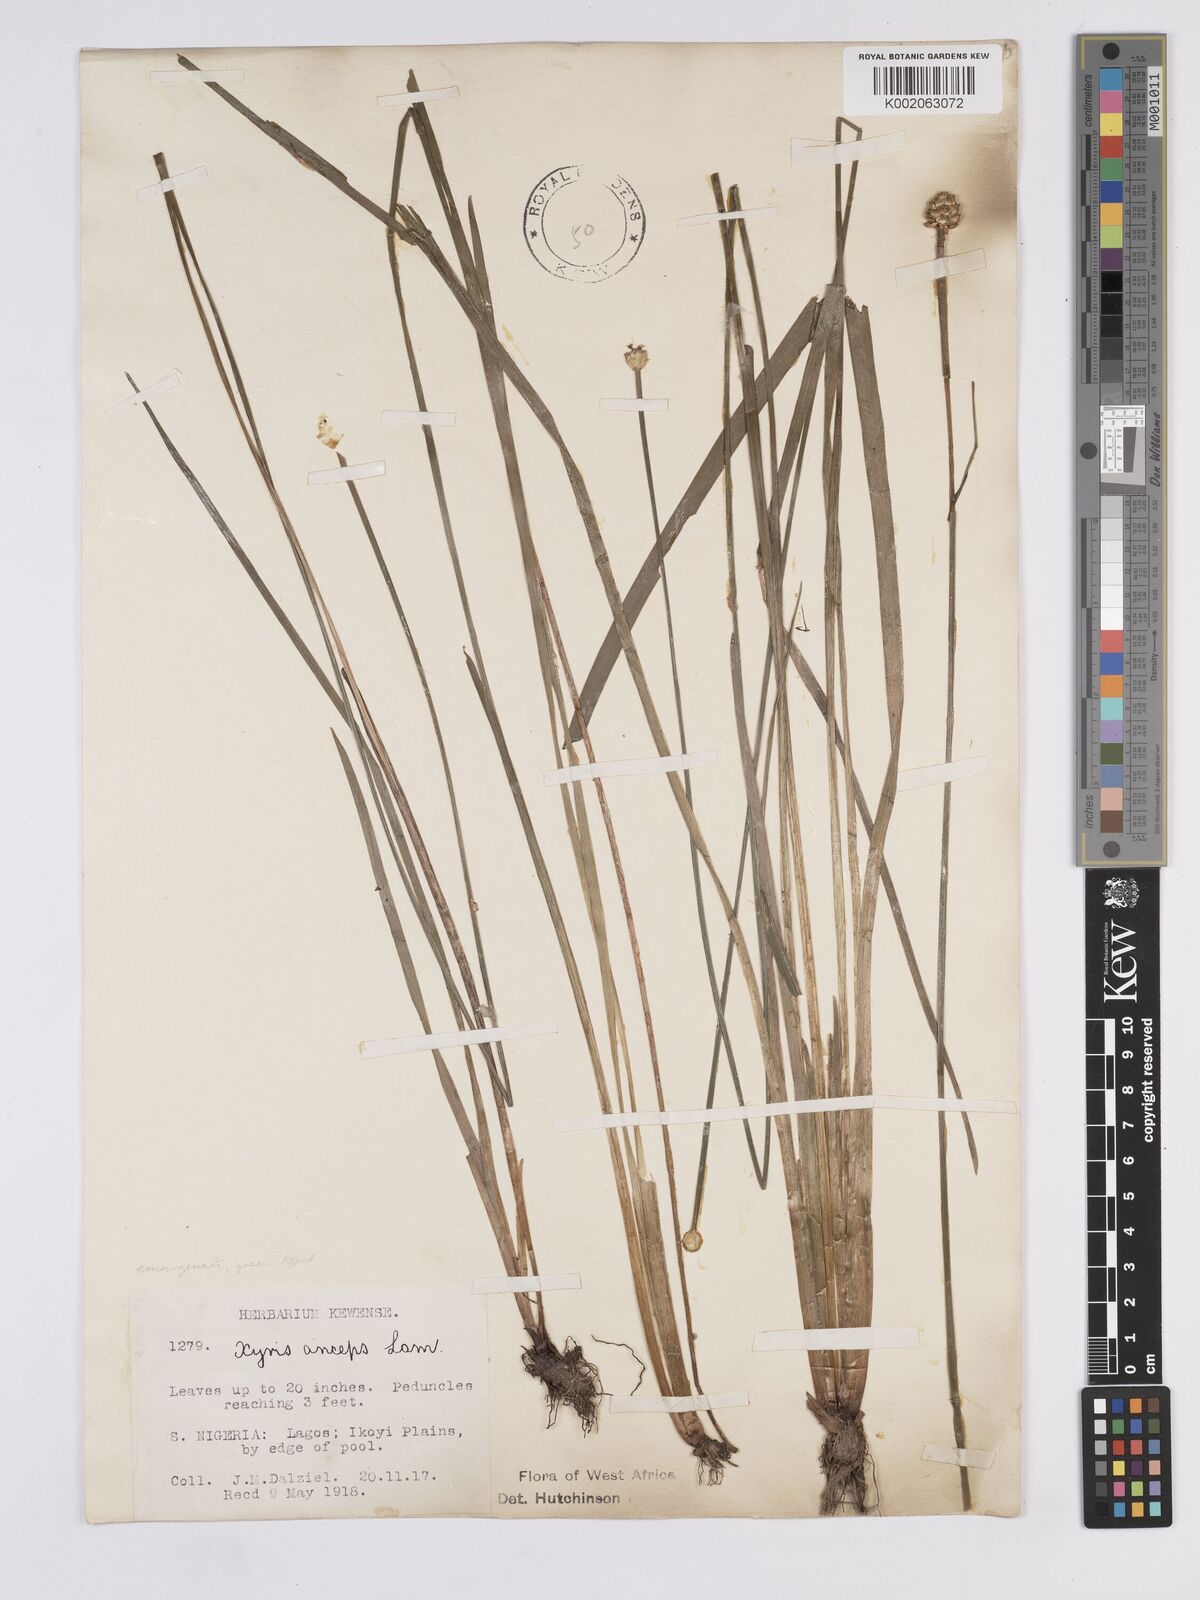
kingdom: Plantae
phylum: Tracheophyta
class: Liliopsida
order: Poales
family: Xyridaceae
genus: Xyris
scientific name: Xyris anceps
